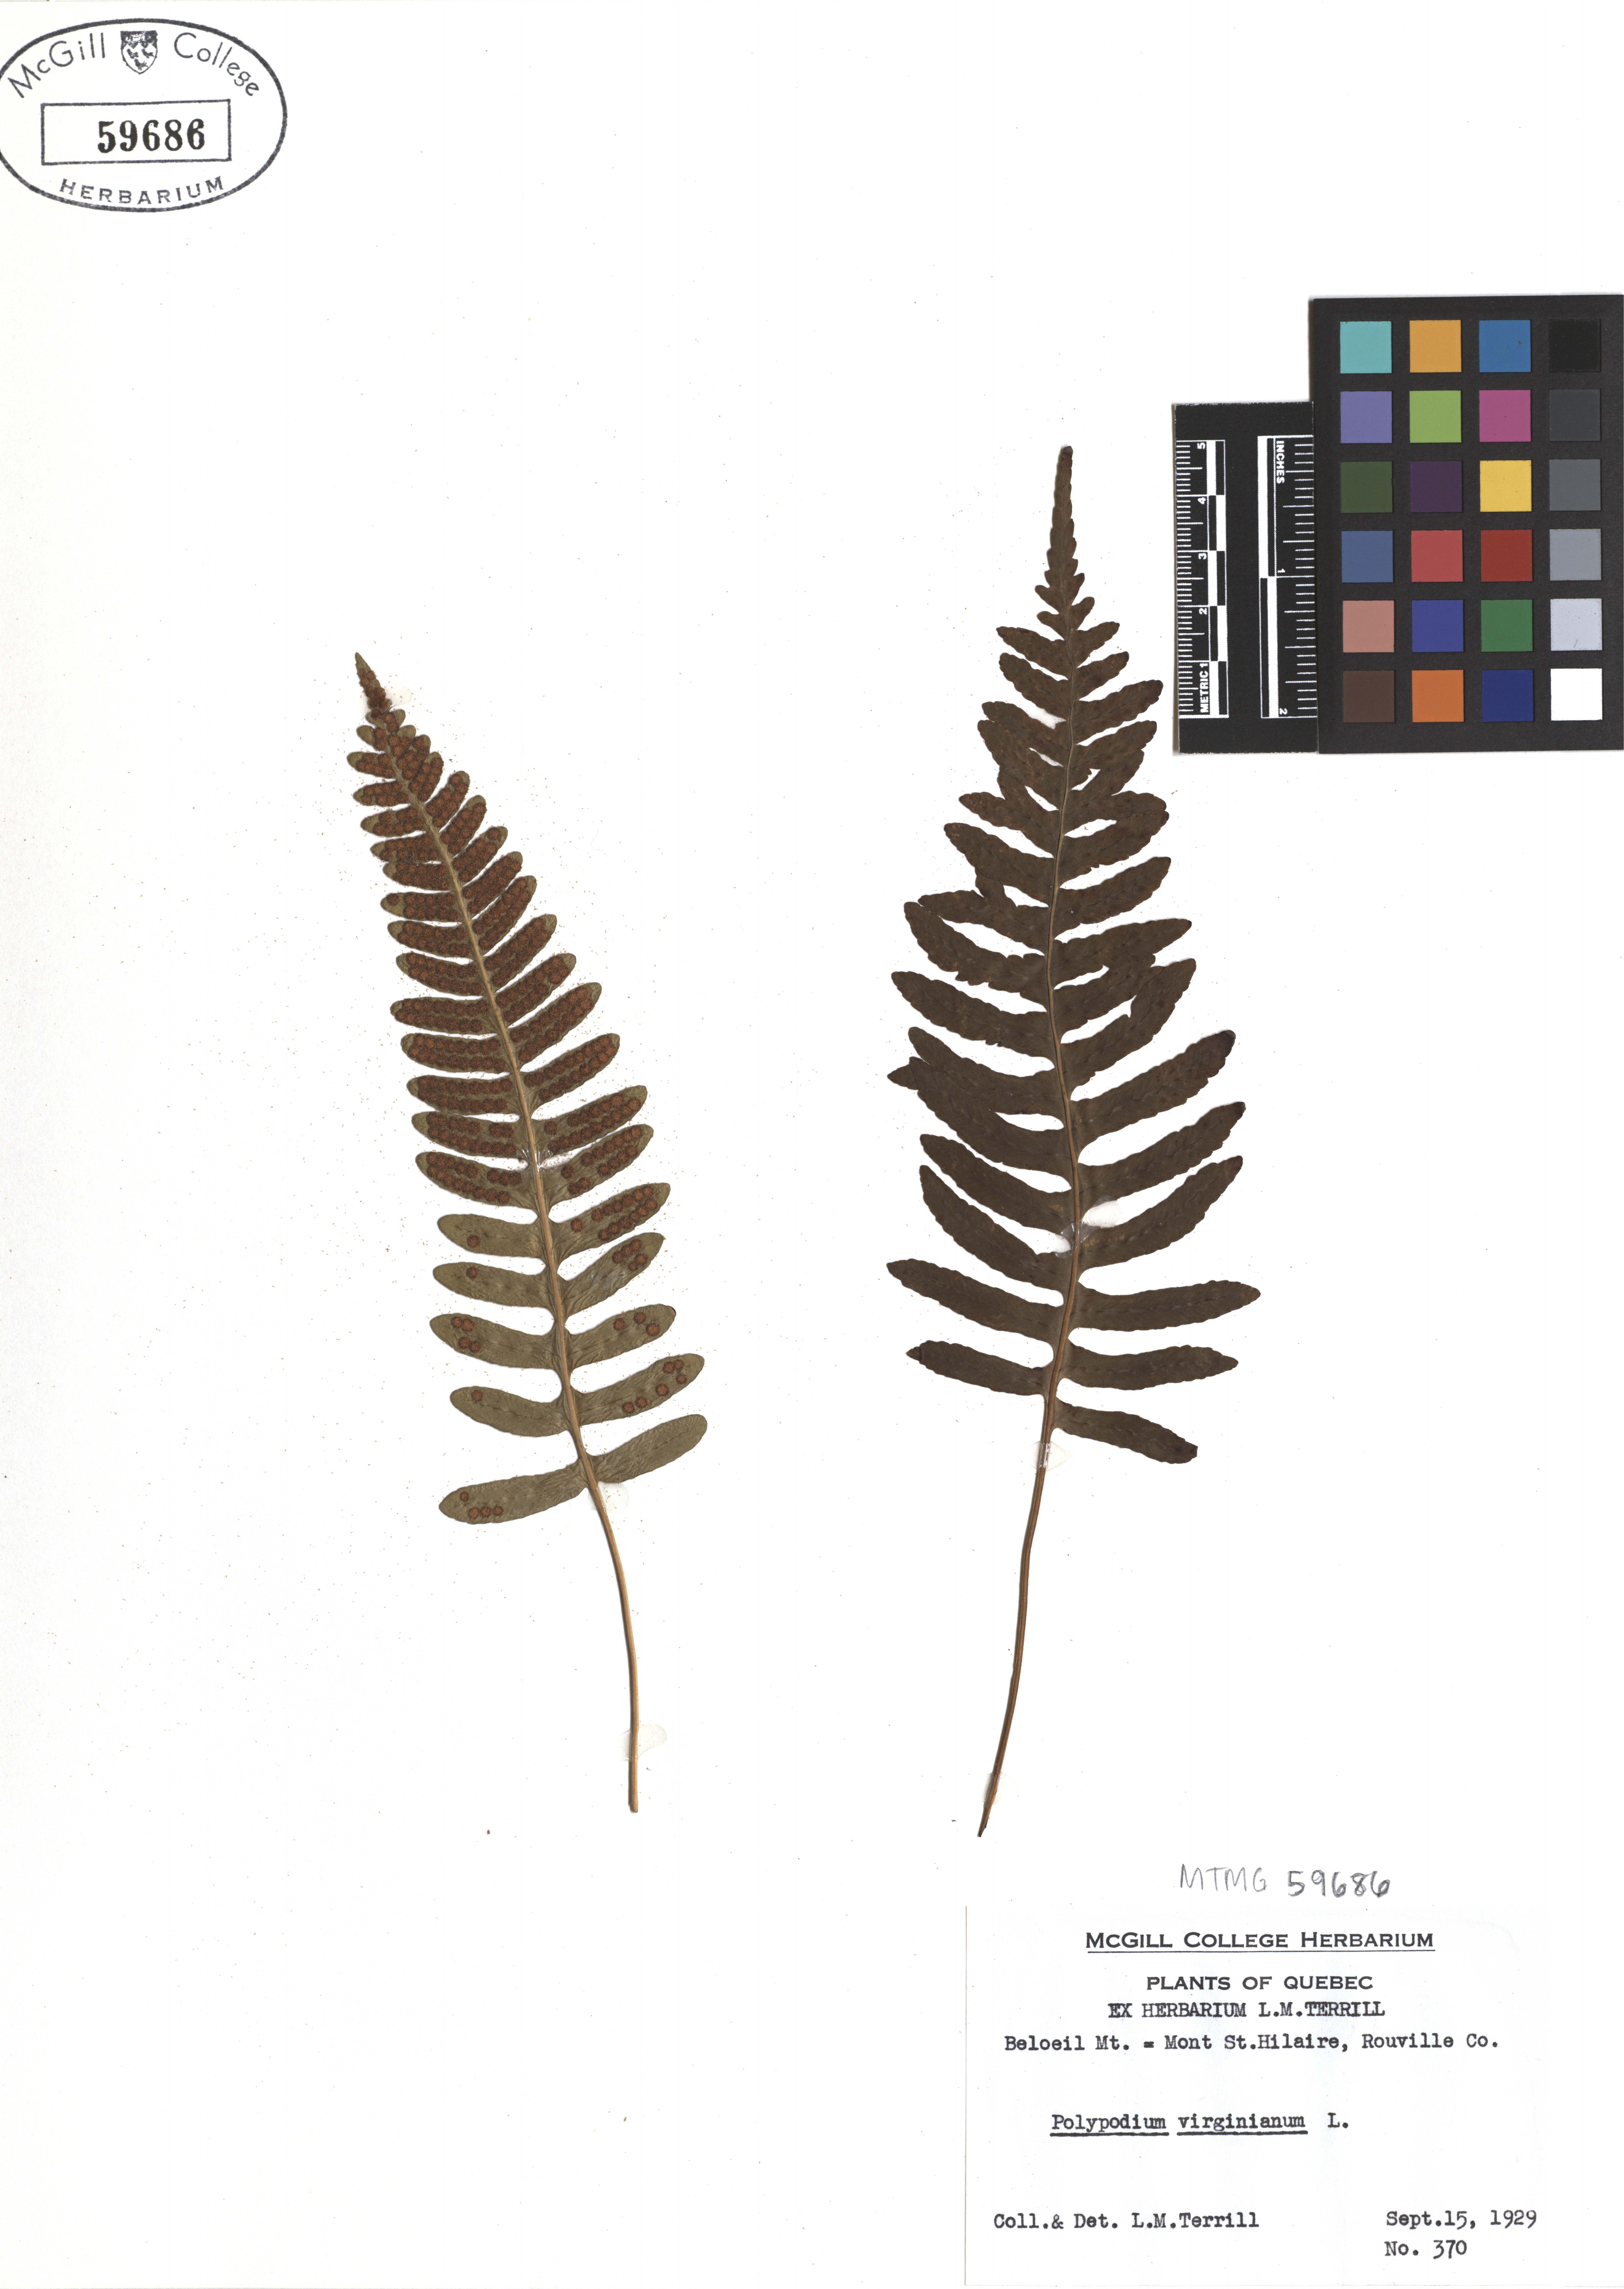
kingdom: Plantae
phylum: Tracheophyta
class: Polypodiopsida
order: Polypodiales
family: Polypodiaceae
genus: Polypodium
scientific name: Polypodium virginianum
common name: American wall fern
